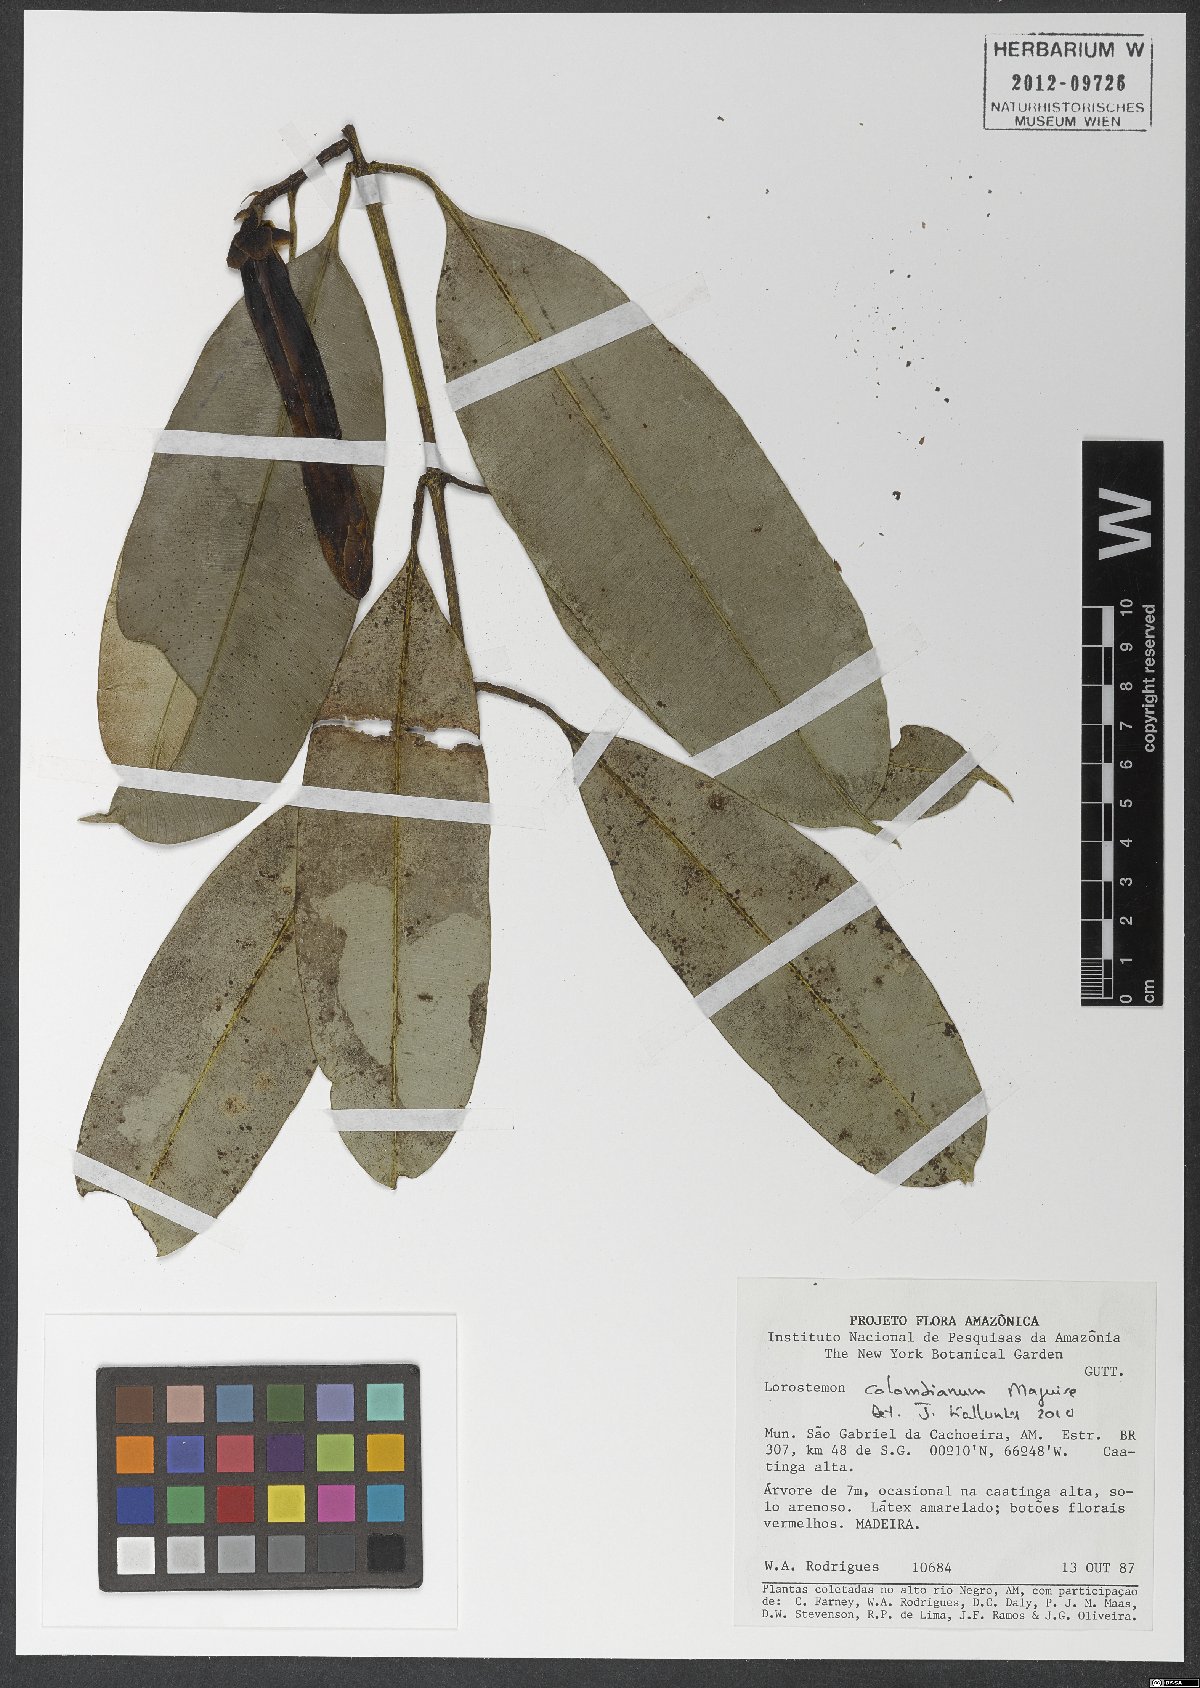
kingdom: Plantae
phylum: Tracheophyta
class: Magnoliopsida
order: Malpighiales
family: Clusiaceae
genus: Lorostemon
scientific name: Lorostemon colombianus
